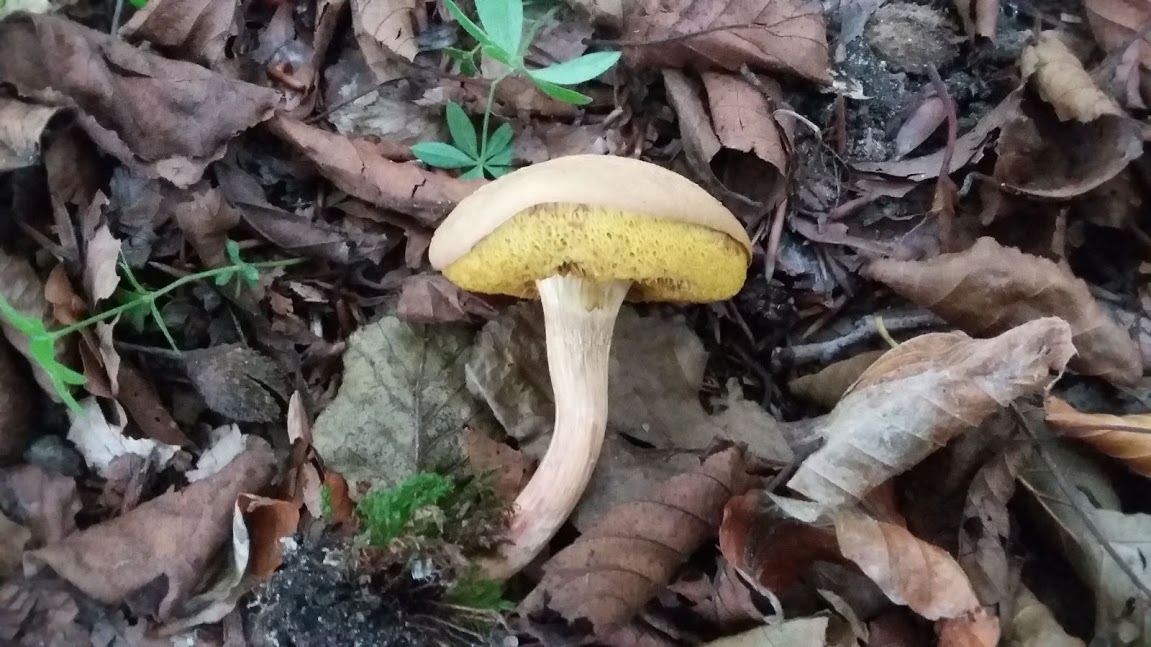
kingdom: Fungi
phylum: Basidiomycota
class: Agaricomycetes
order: Boletales
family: Boletaceae
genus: Xerocomus
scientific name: Xerocomus
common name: filtrørhat
